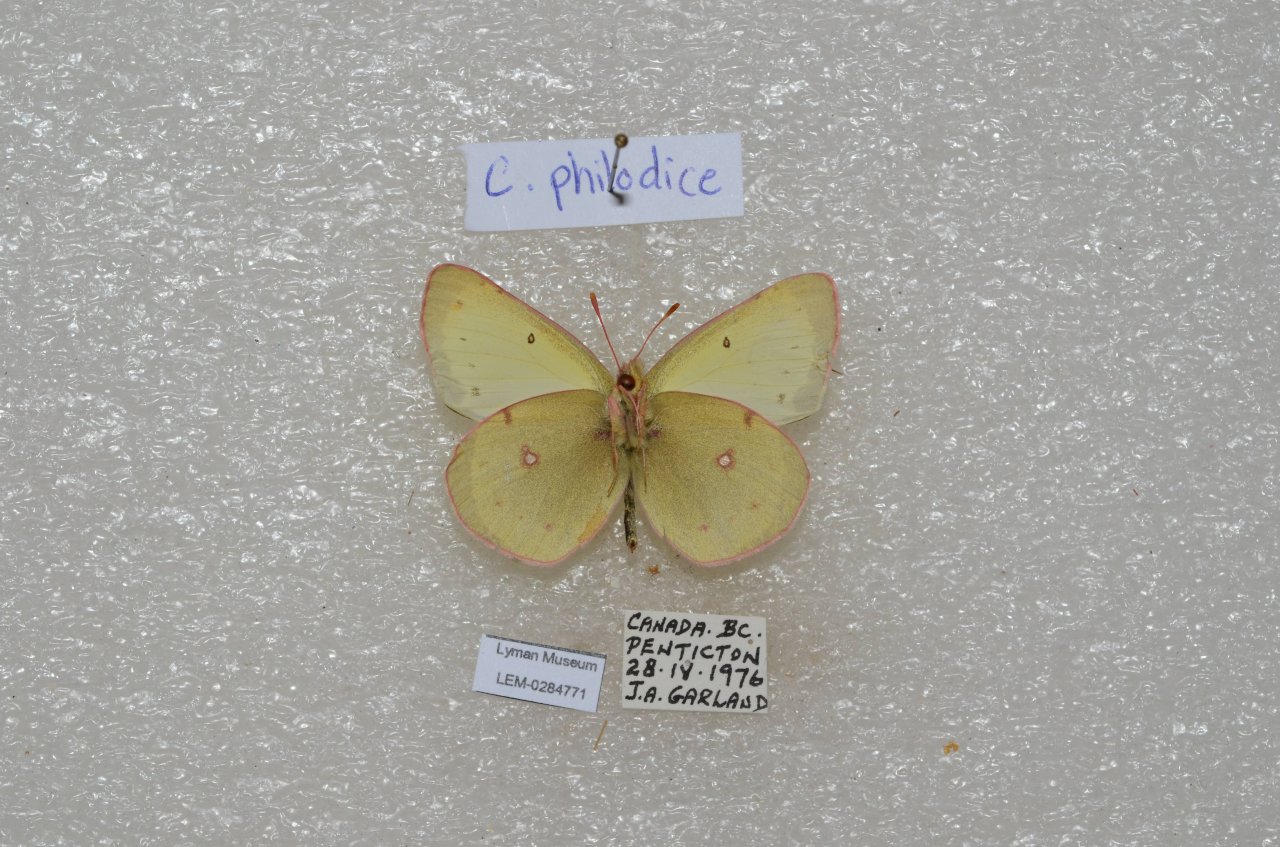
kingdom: Animalia
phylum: Arthropoda
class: Insecta
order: Lepidoptera
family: Pieridae
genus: Colias
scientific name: Colias philodice
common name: Clouded Sulphur
